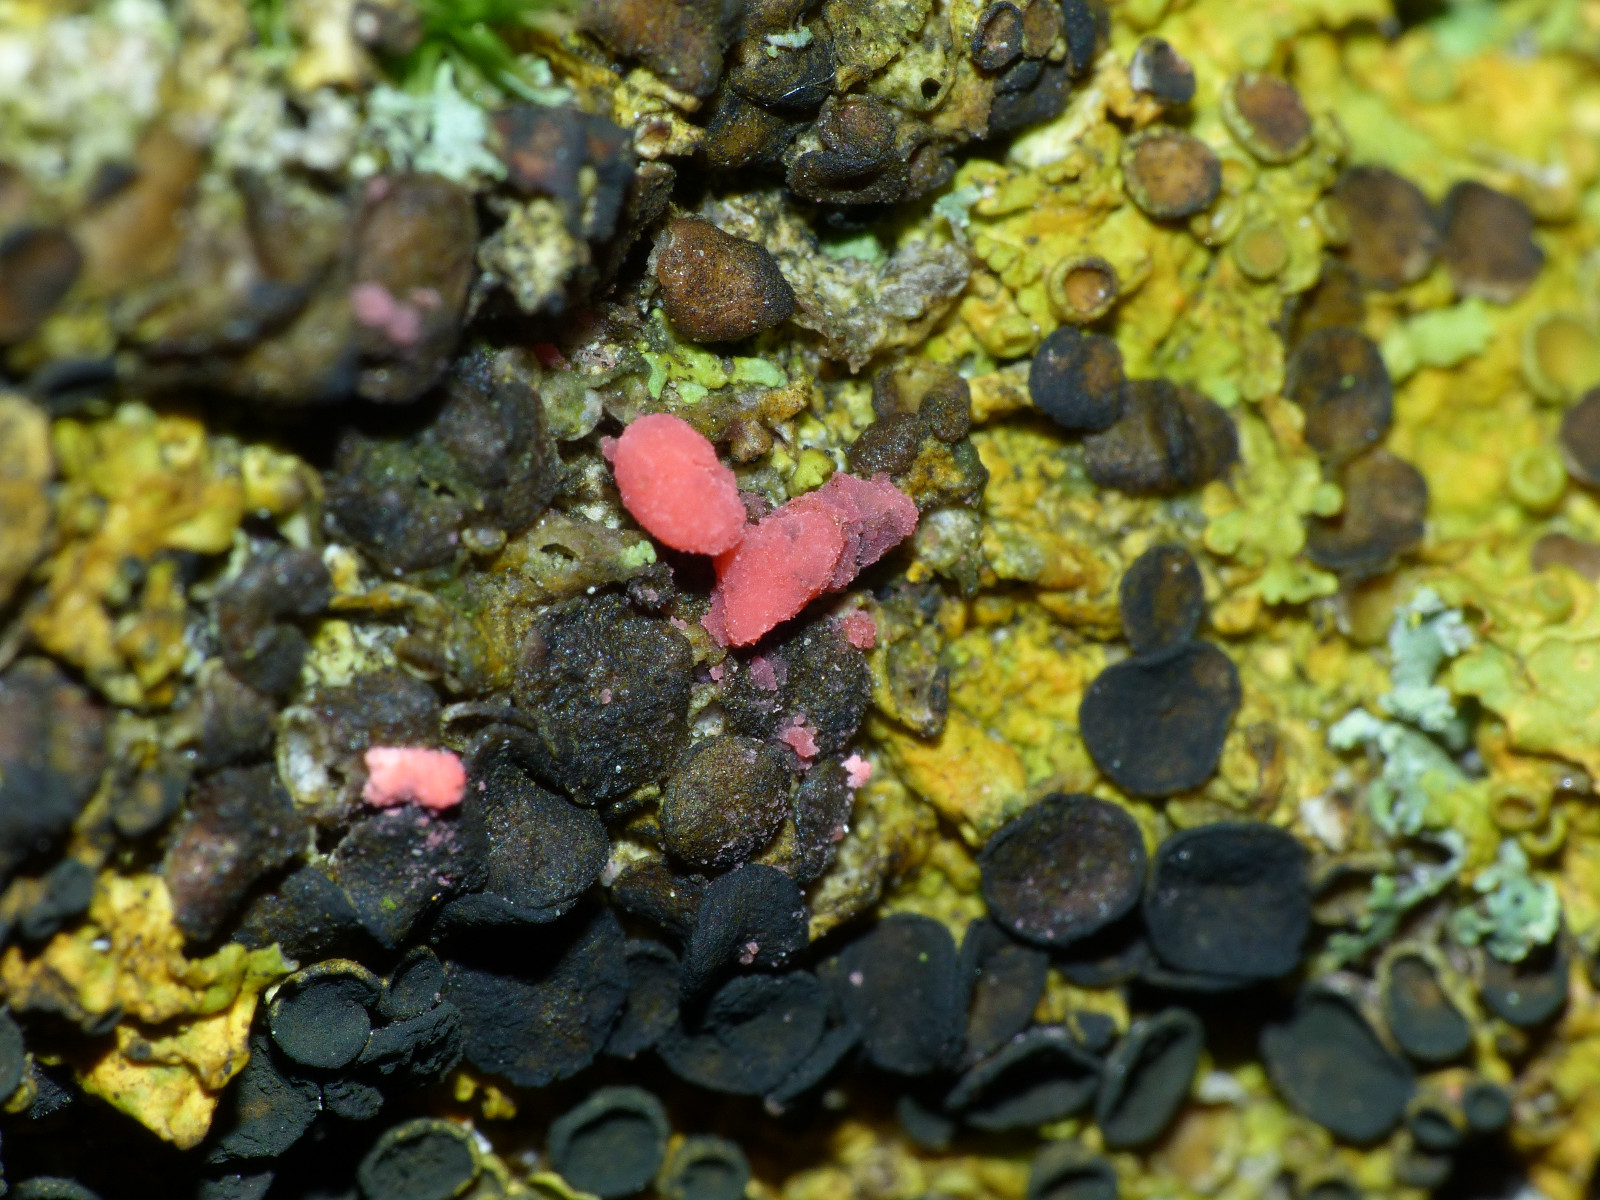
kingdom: Fungi
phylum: Ascomycota
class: Sordariomycetes
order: Hypocreales
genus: Illosporiopsis
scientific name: Illosporiopsis christiansenii
